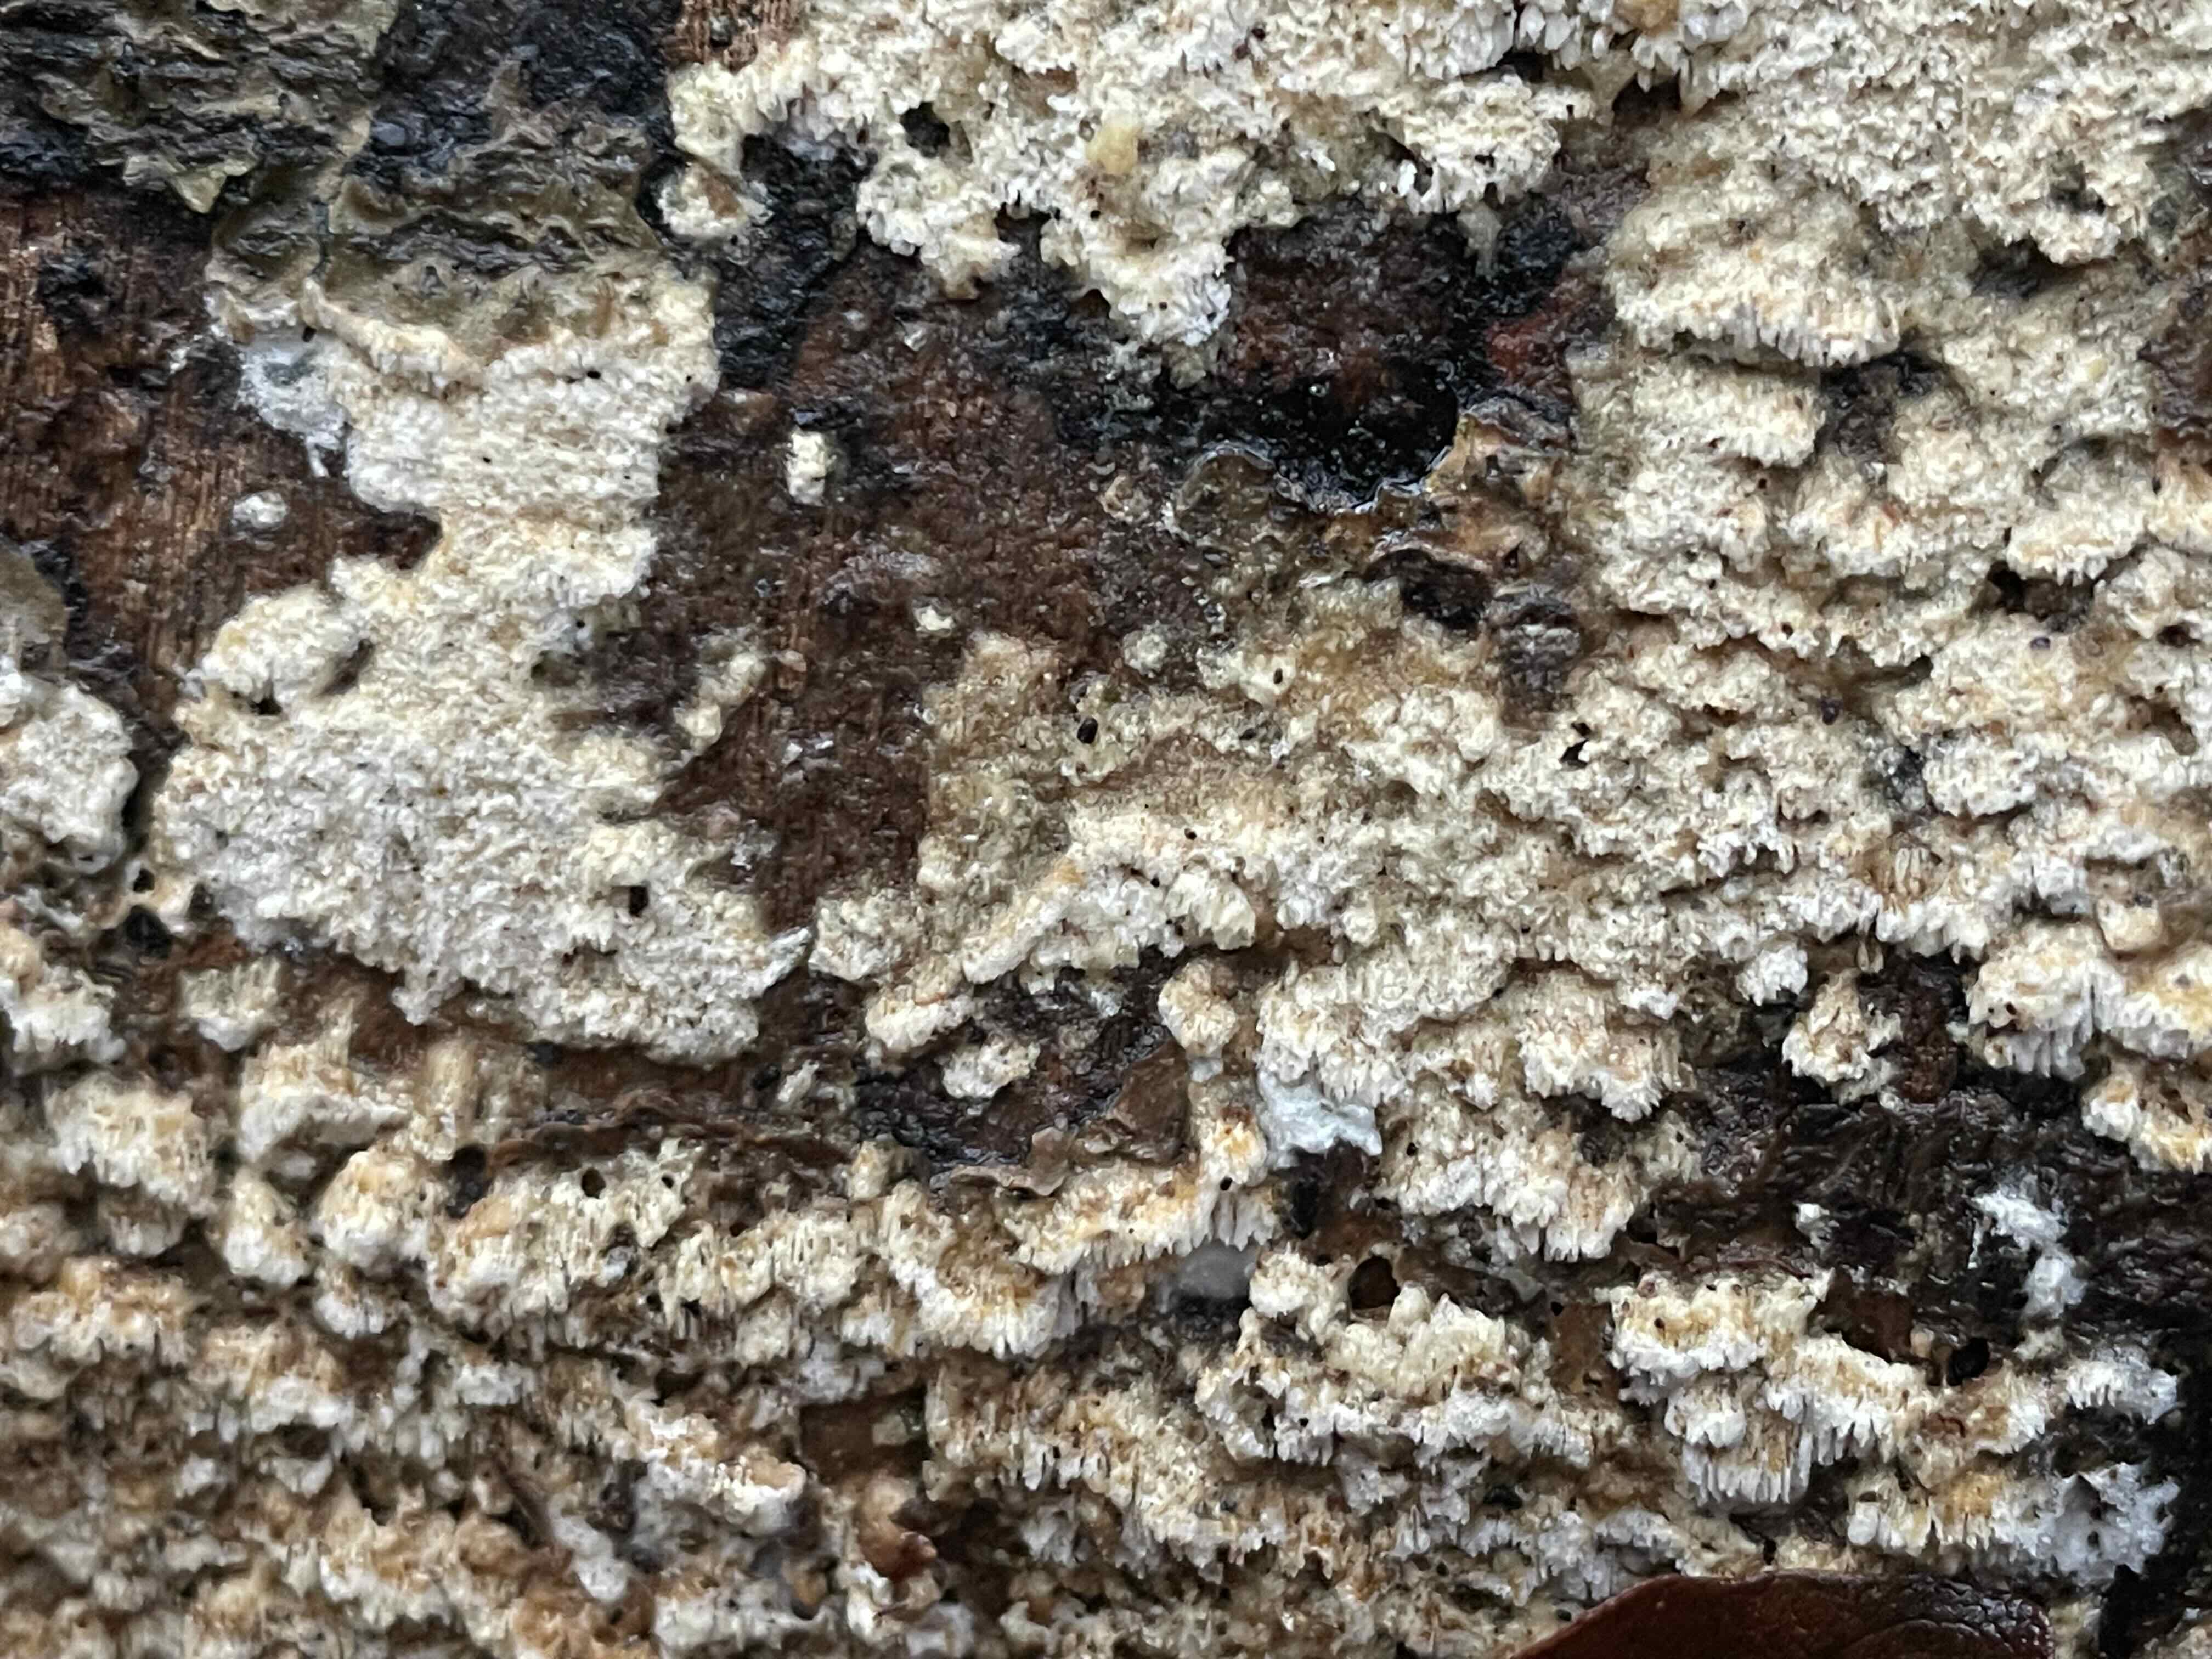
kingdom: Fungi
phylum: Basidiomycota
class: Agaricomycetes
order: Hymenochaetales
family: Schizoporaceae
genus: Schizopora
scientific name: Schizopora paradoxa
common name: hvid tandsvamp
